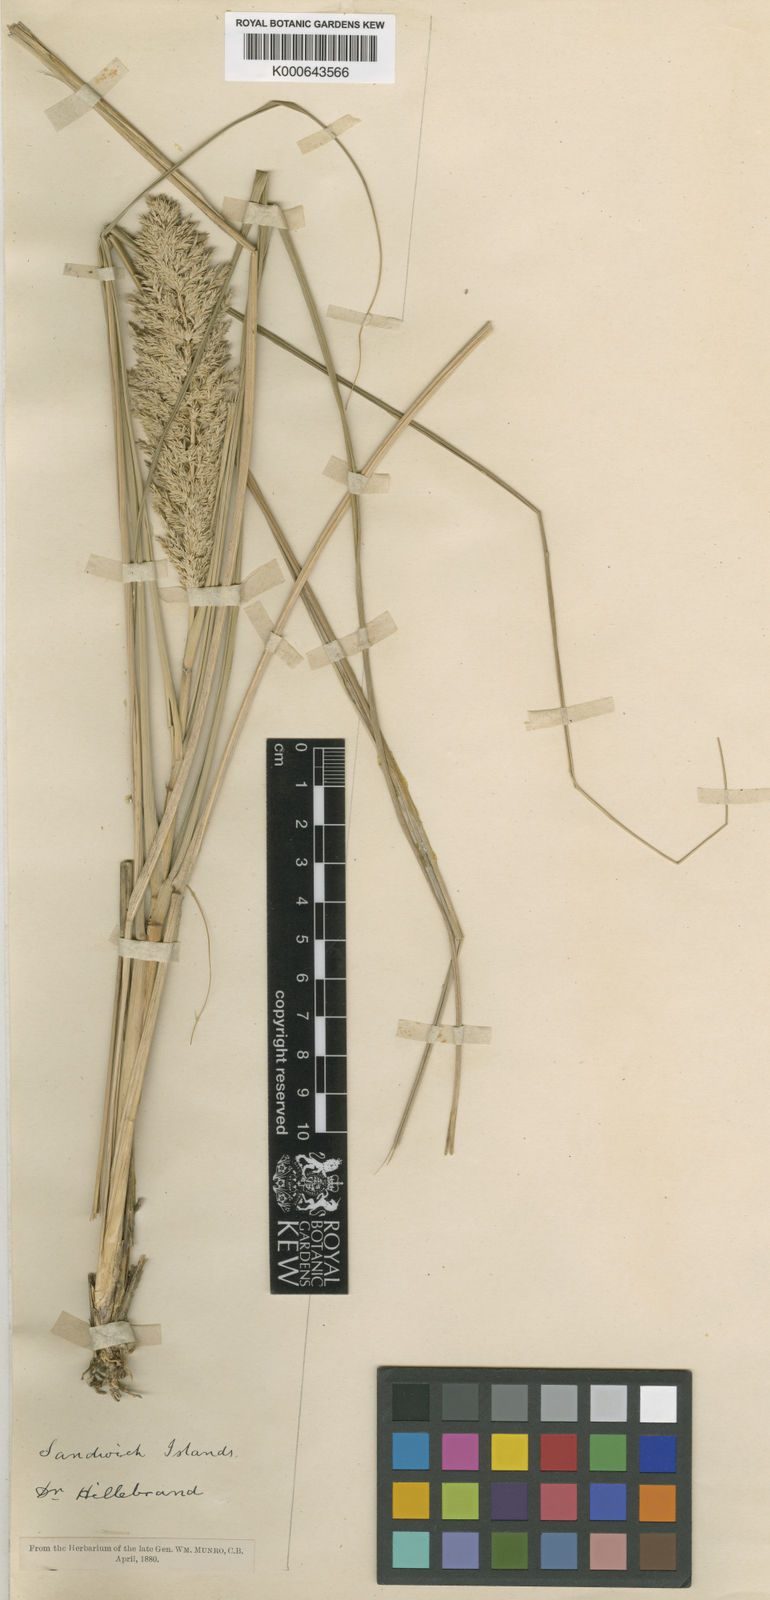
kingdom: Plantae
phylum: Tracheophyta
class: Liliopsida
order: Poales
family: Poaceae
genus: Eragrostis
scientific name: Eragrostis
